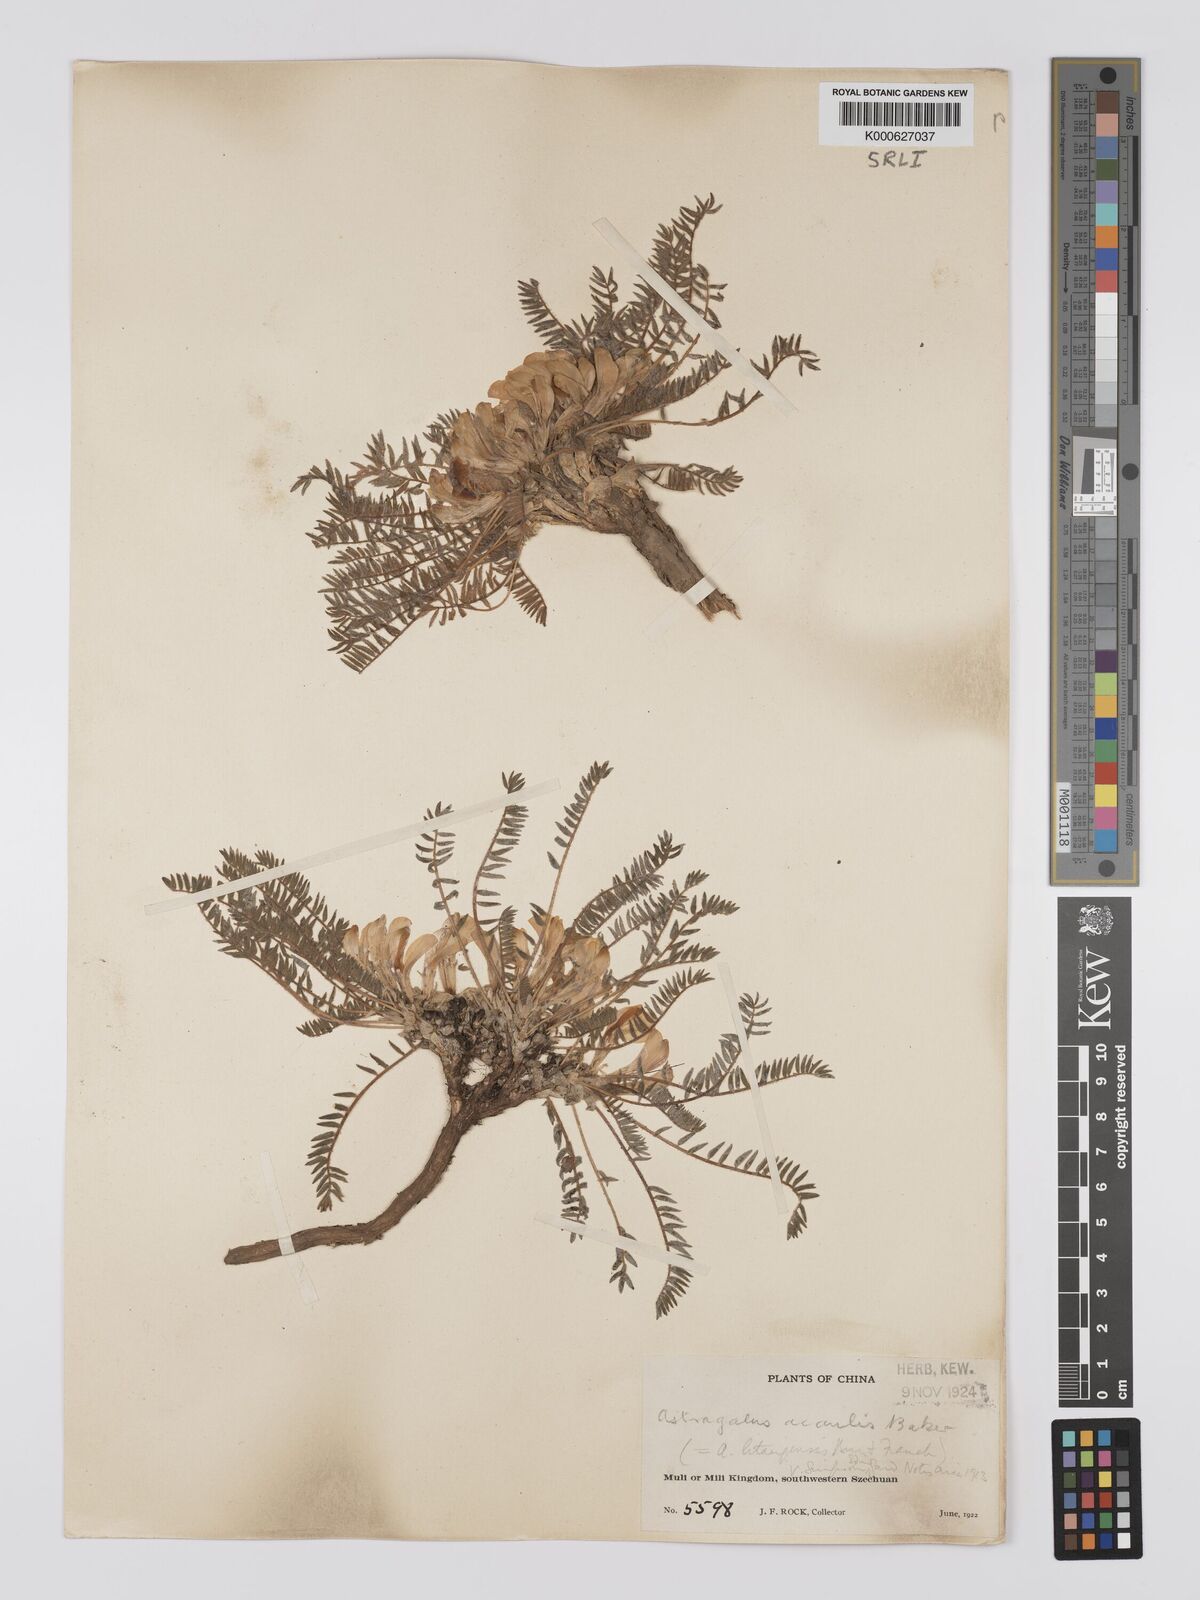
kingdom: Plantae
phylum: Tracheophyta
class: Magnoliopsida
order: Fabales
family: Fabaceae
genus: Astragalus
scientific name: Astragalus acaulis
